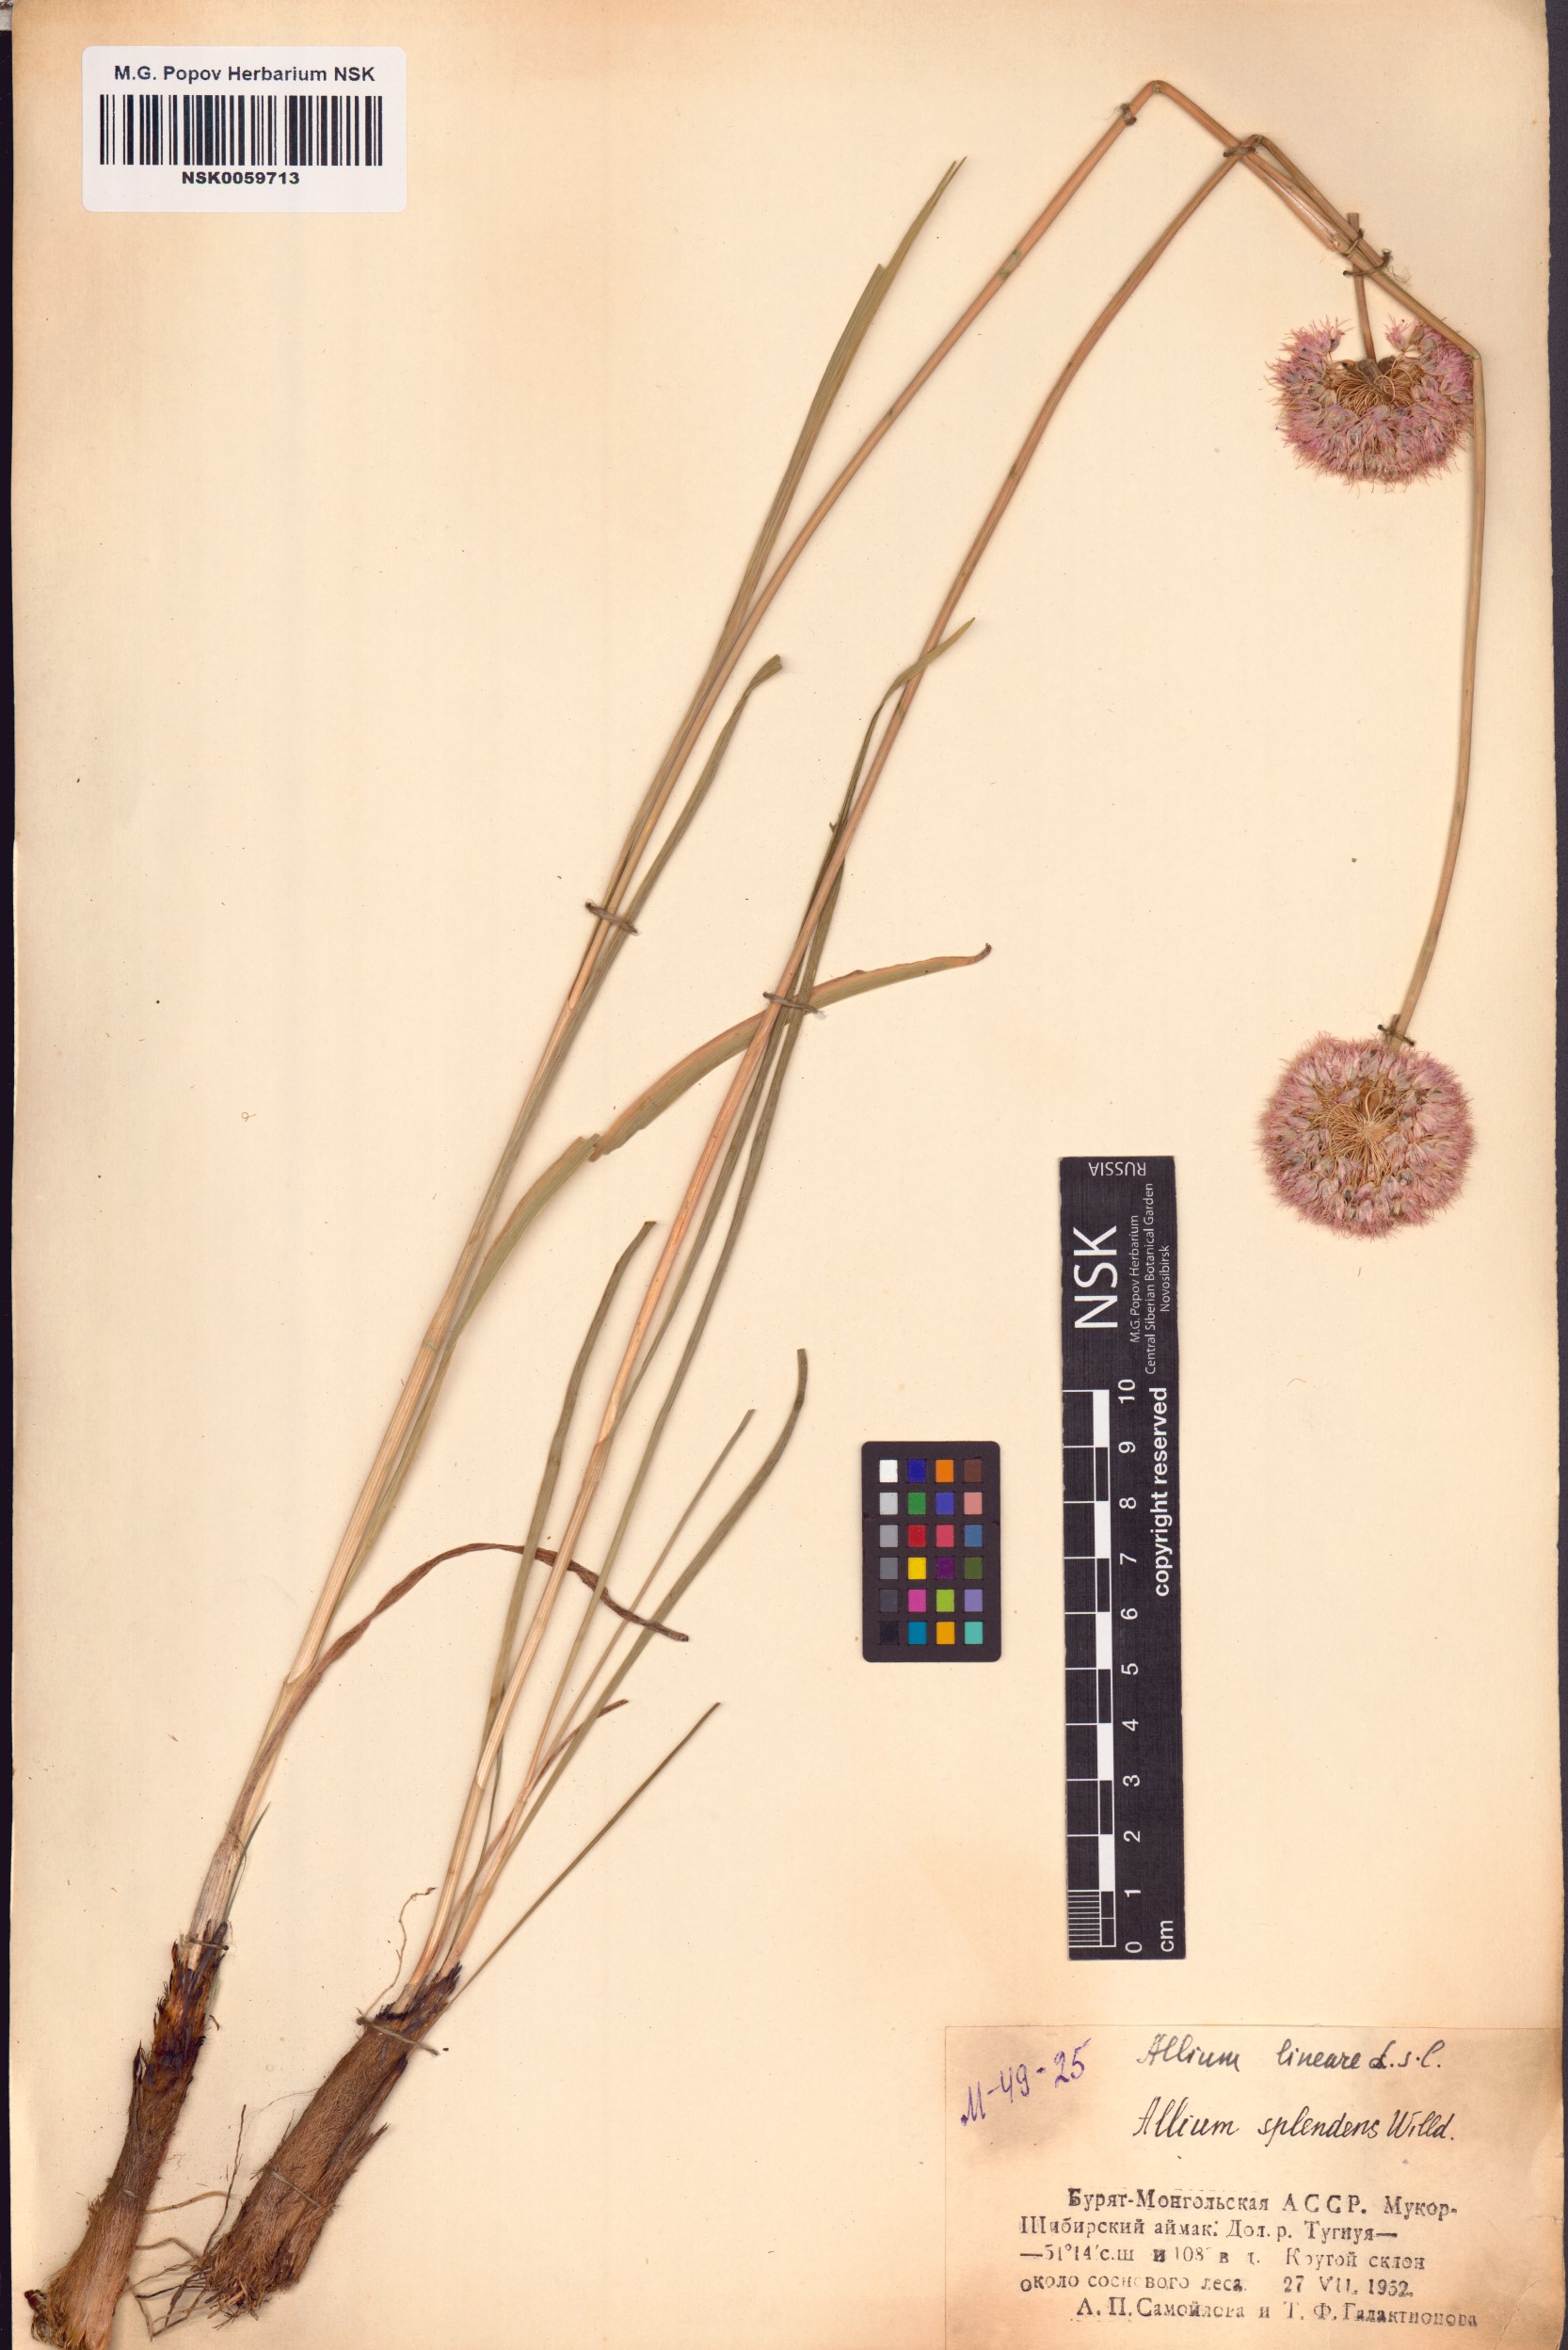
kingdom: Plantae
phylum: Tracheophyta
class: Liliopsida
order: Asparagales
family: Amaryllidaceae
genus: Allium
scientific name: Allium splendens
